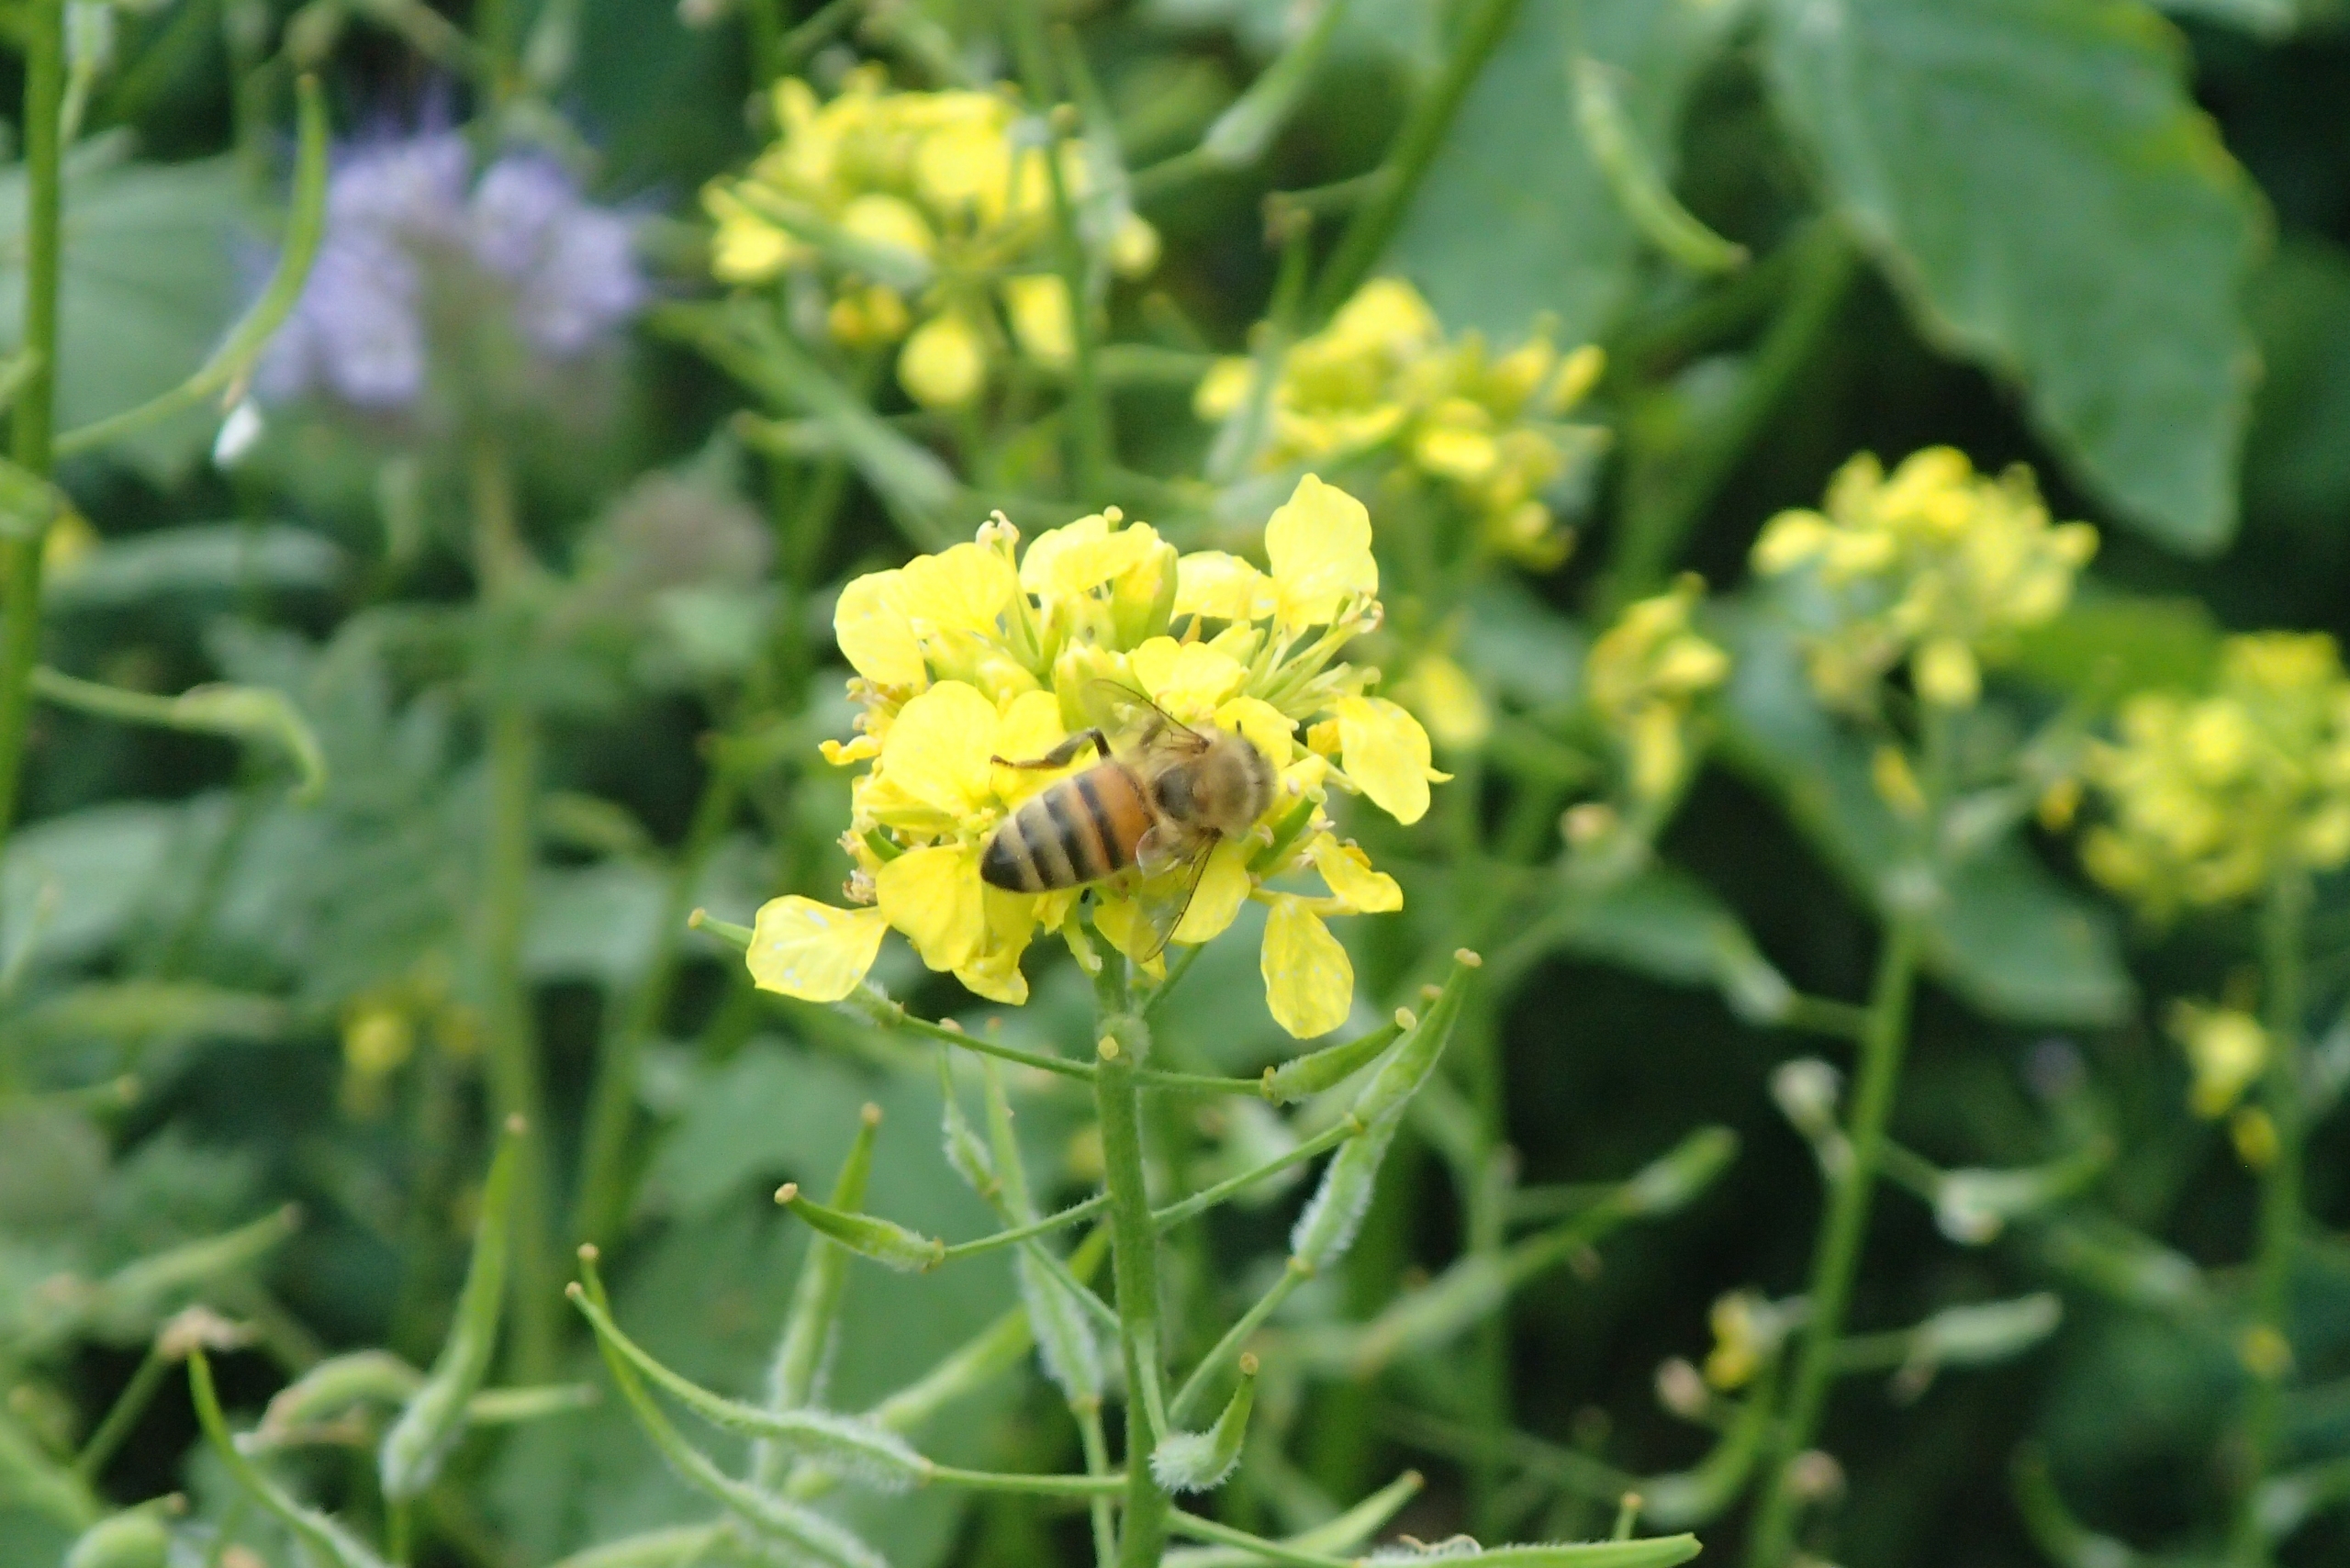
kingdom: Animalia
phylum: Arthropoda
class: Insecta
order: Hymenoptera
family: Apidae
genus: Apis
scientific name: Apis mellifera
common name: Honningbi
